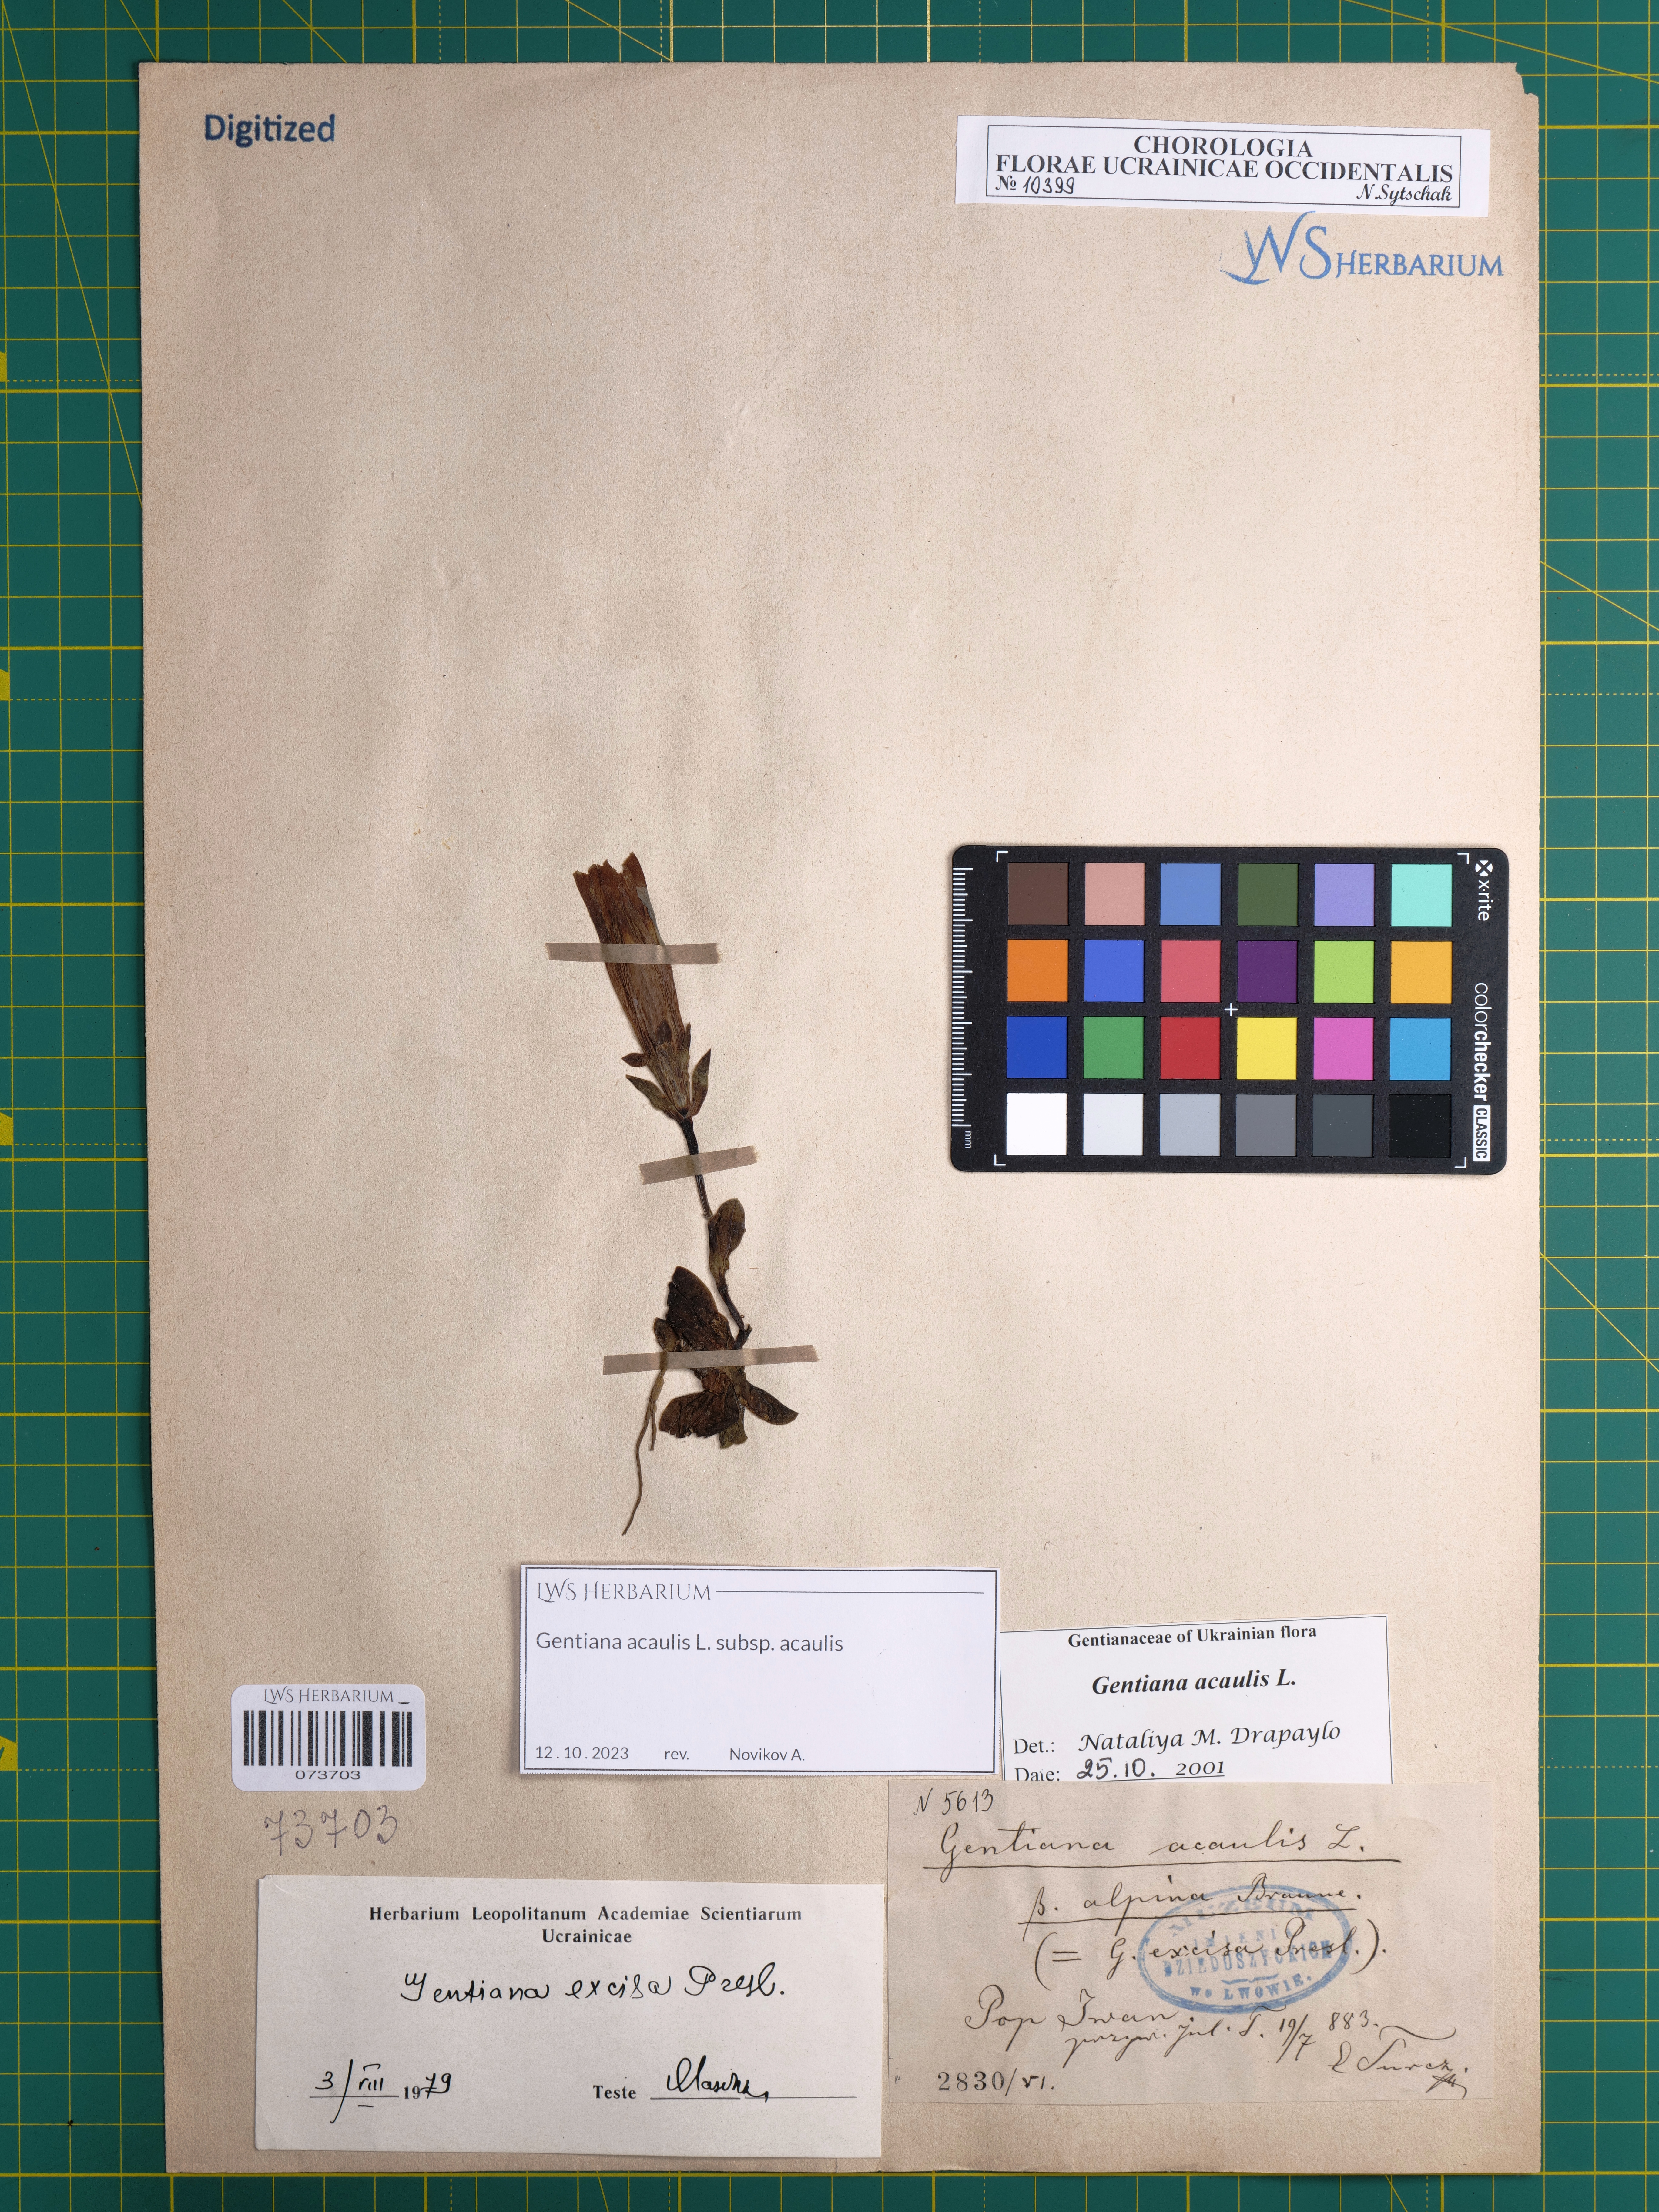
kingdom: Plantae
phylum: Tracheophyta
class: Magnoliopsida
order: Gentianales
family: Gentianaceae
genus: Gentiana
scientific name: Gentiana acaulis
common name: Trumpet gentian
